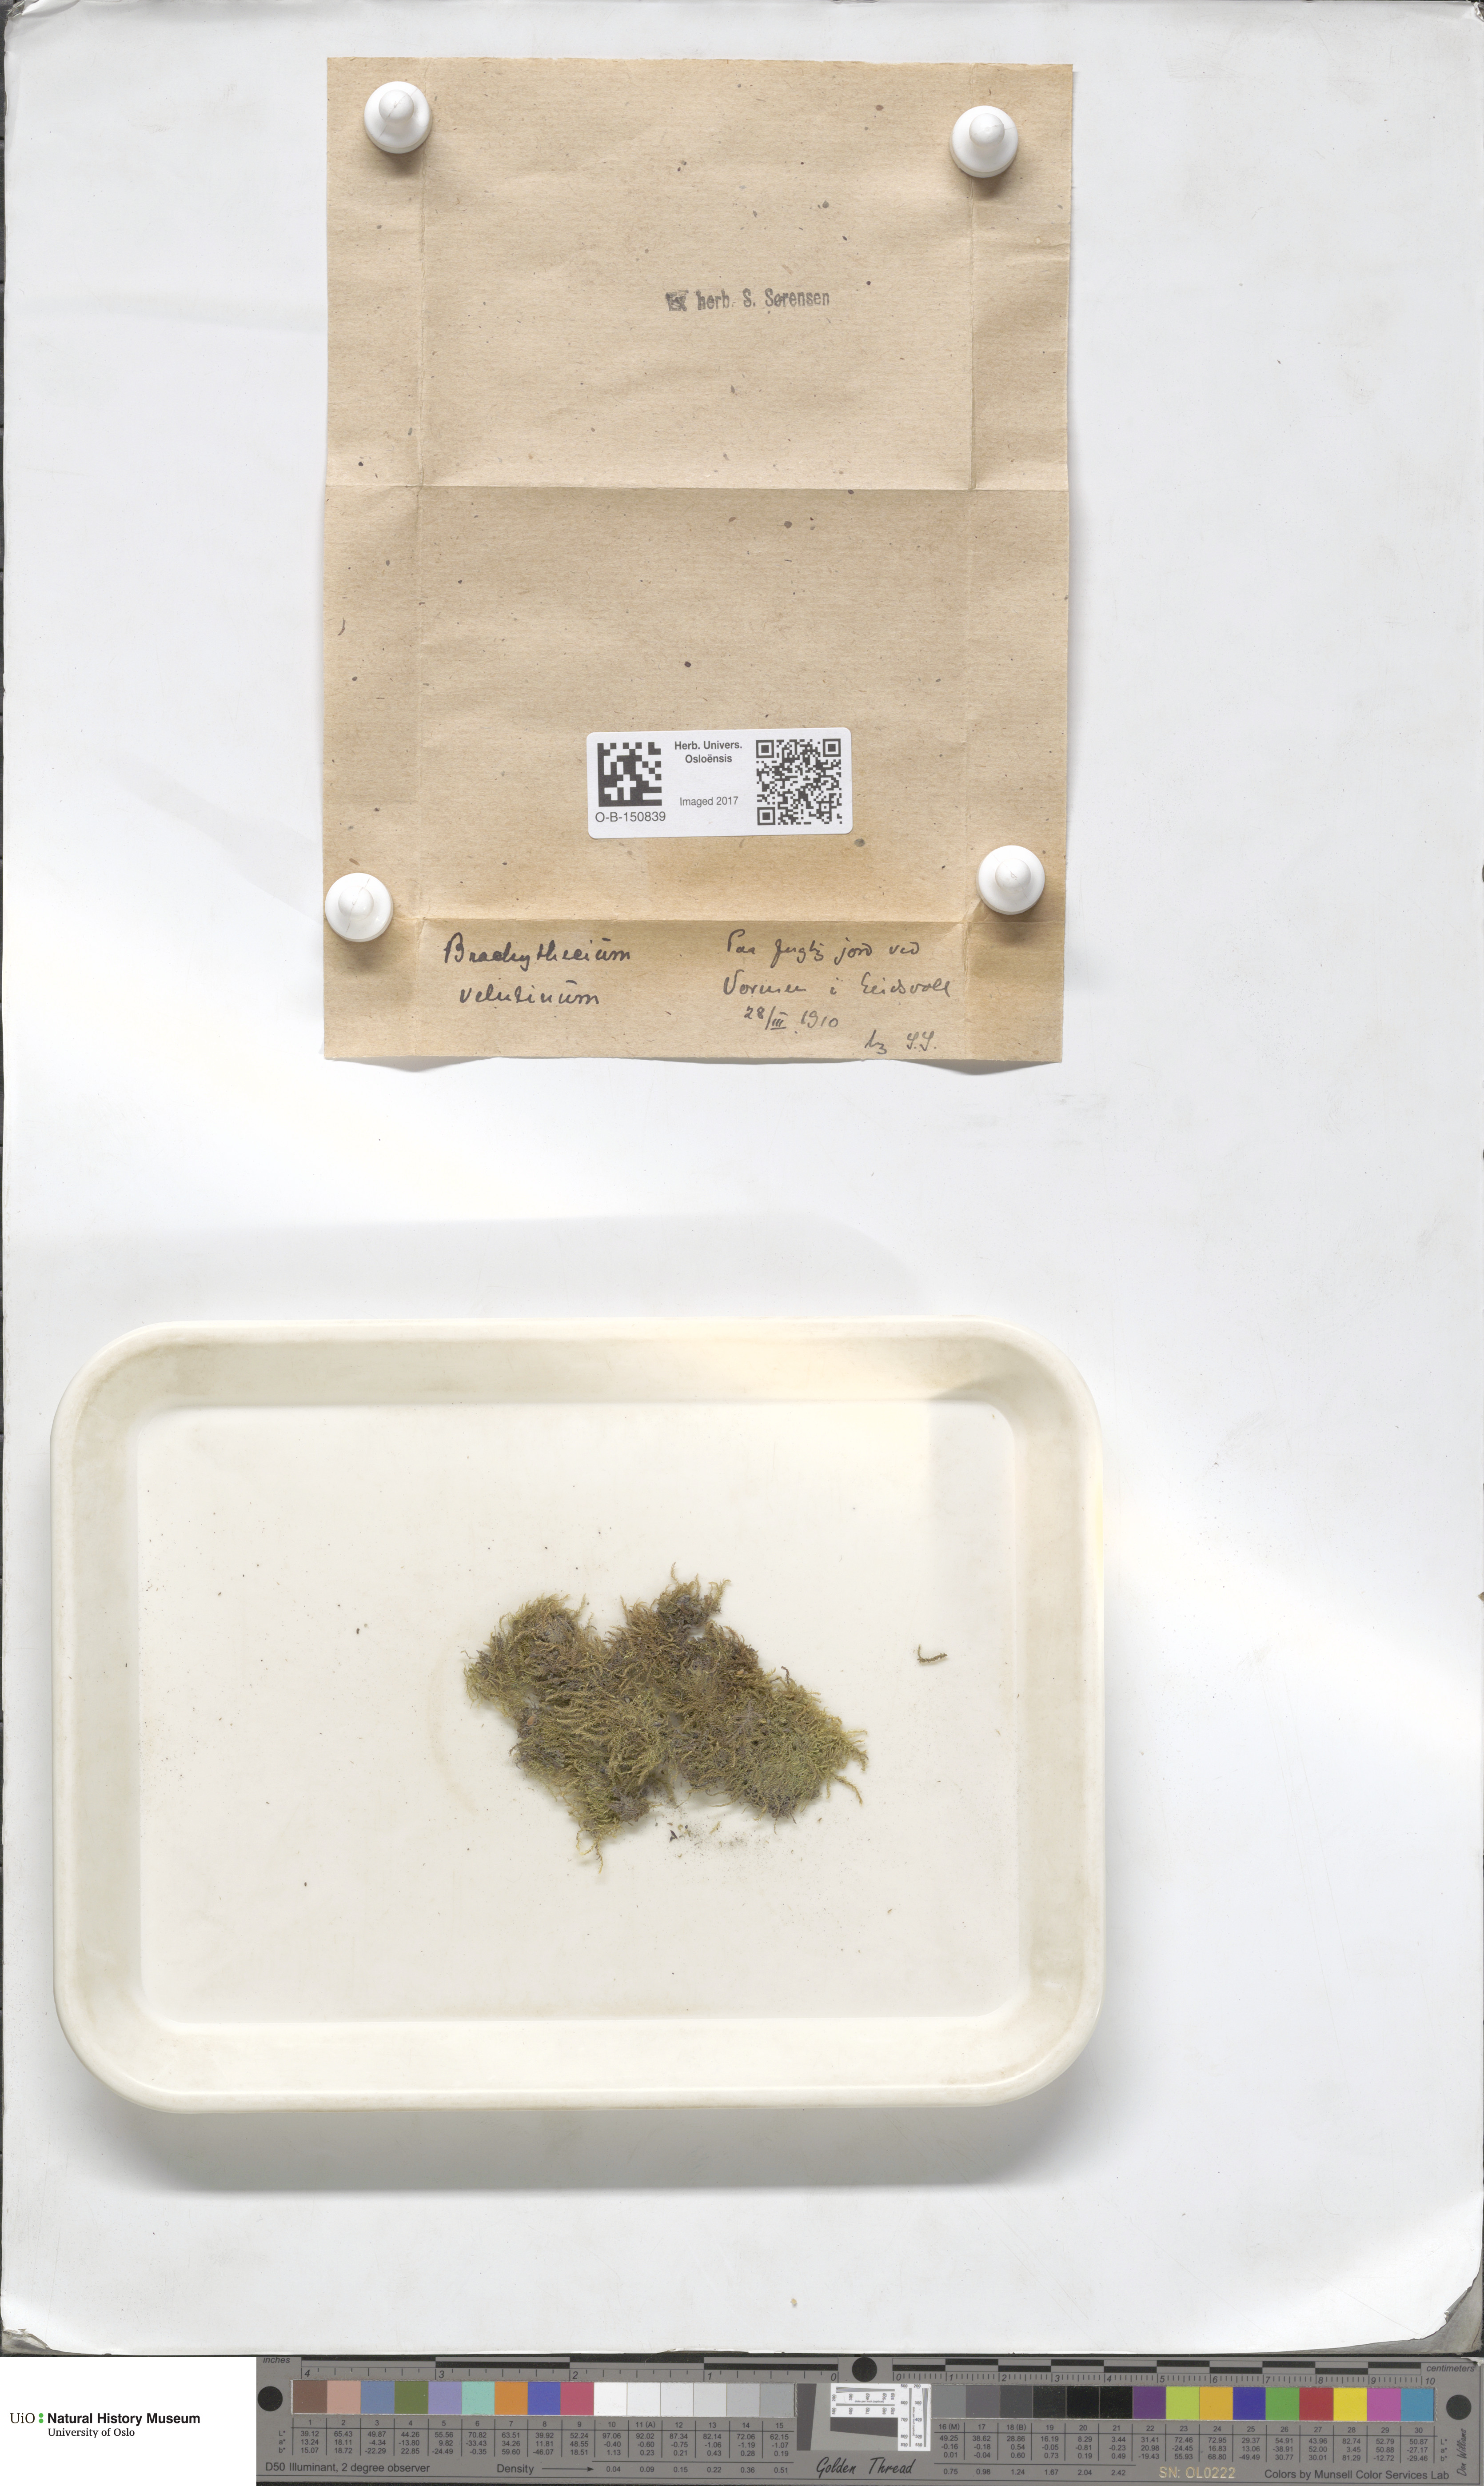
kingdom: Plantae
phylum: Bryophyta
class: Bryopsida
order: Hypnales
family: Brachytheciaceae
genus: Brachytheciastrum
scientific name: Brachytheciastrum velutinum
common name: Velvet feather-moss
